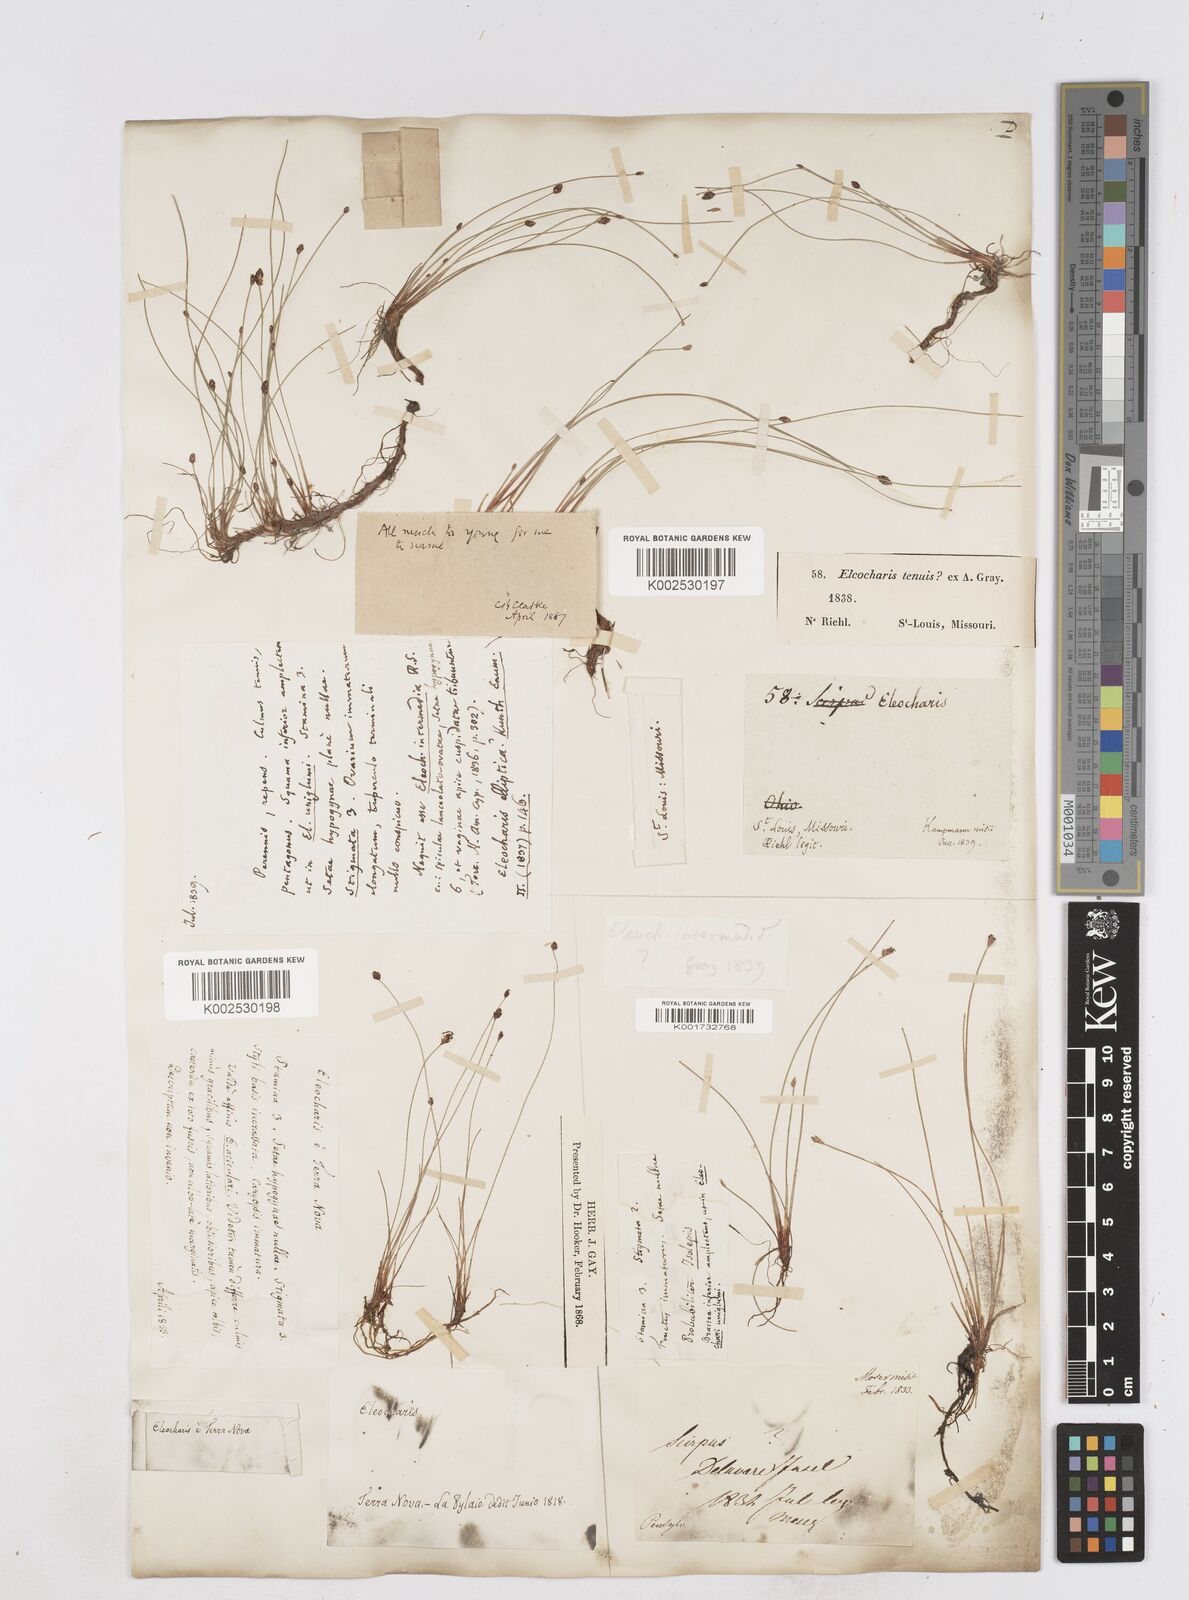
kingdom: Plantae
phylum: Tracheophyta
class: Liliopsida
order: Poales
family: Cyperaceae
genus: Eleocharis
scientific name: Eleocharis tenuis
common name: Dog's hair
